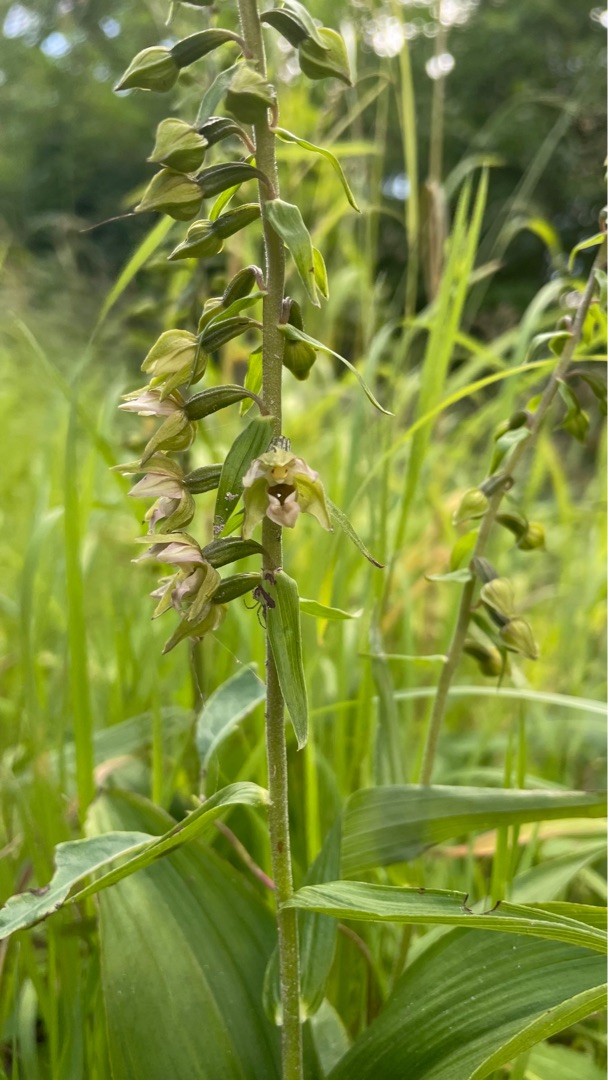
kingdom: Plantae
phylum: Tracheophyta
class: Liliopsida
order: Asparagales
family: Orchidaceae
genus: Epipactis
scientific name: Epipactis helleborine
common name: Skov-hullæbe
